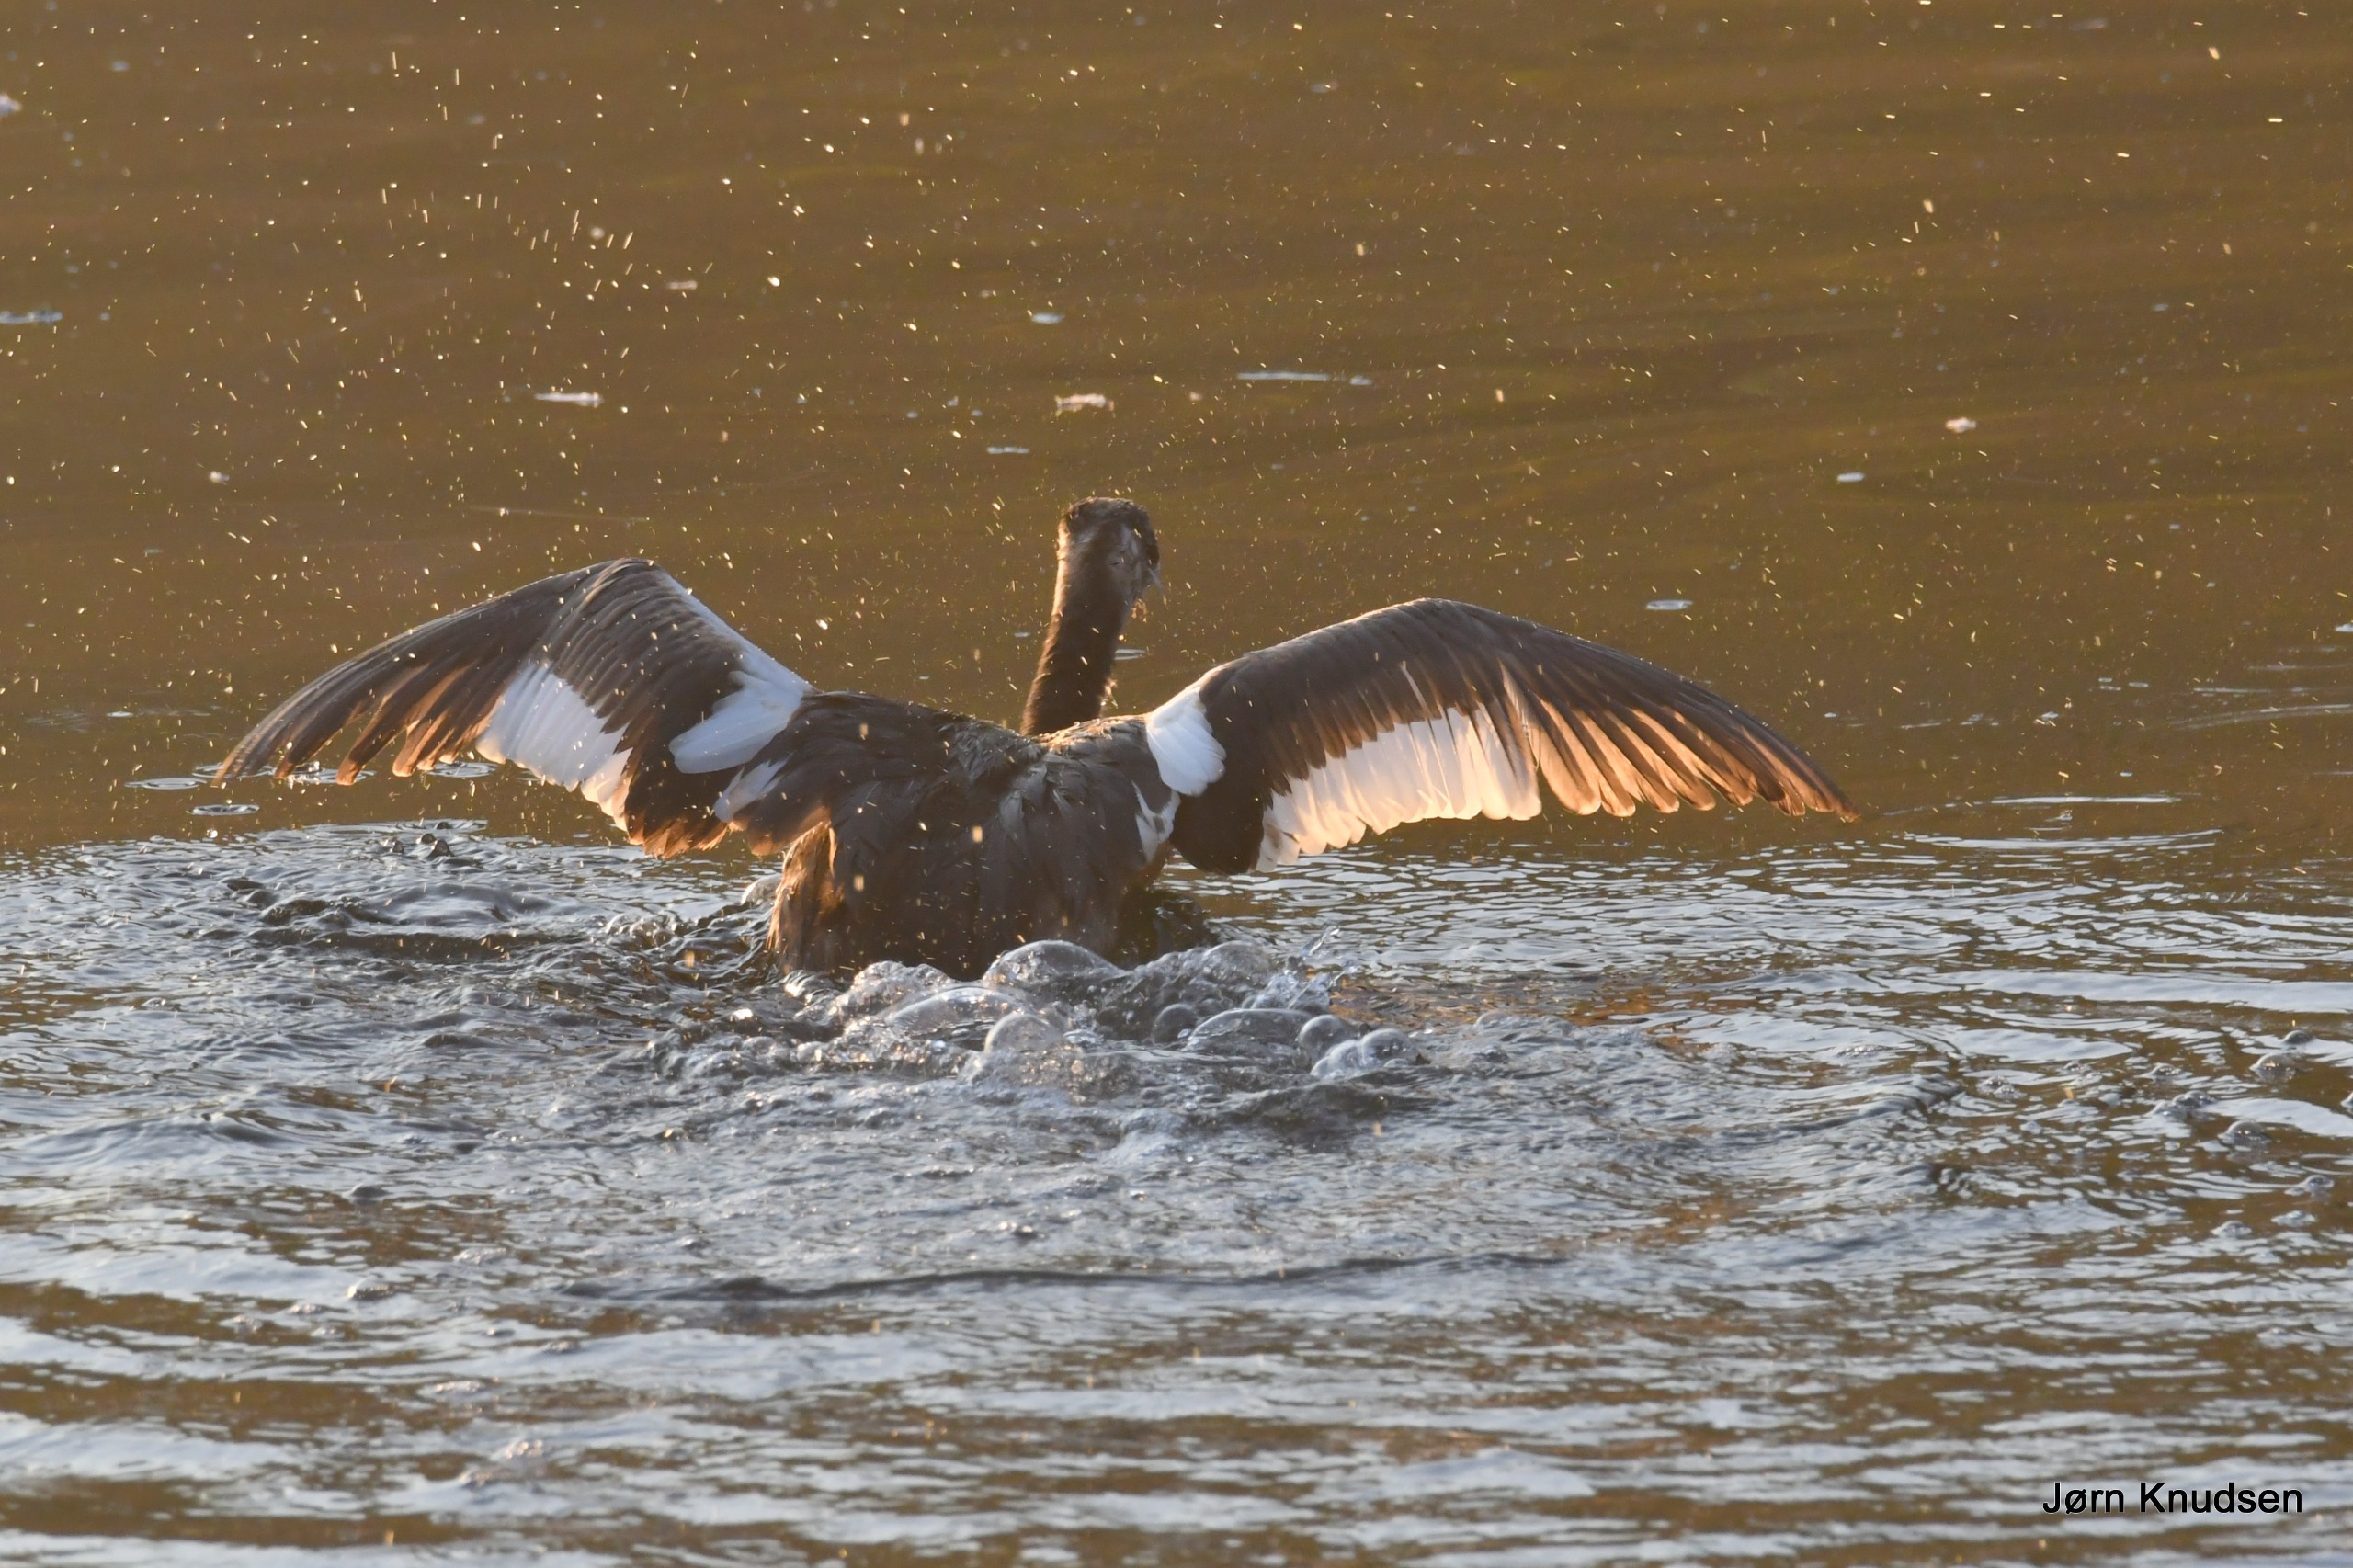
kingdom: Animalia
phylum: Chordata
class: Aves
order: Podicipediformes
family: Podicipedidae
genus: Podiceps
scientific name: Podiceps cristatus
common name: Toppet lappedykker
